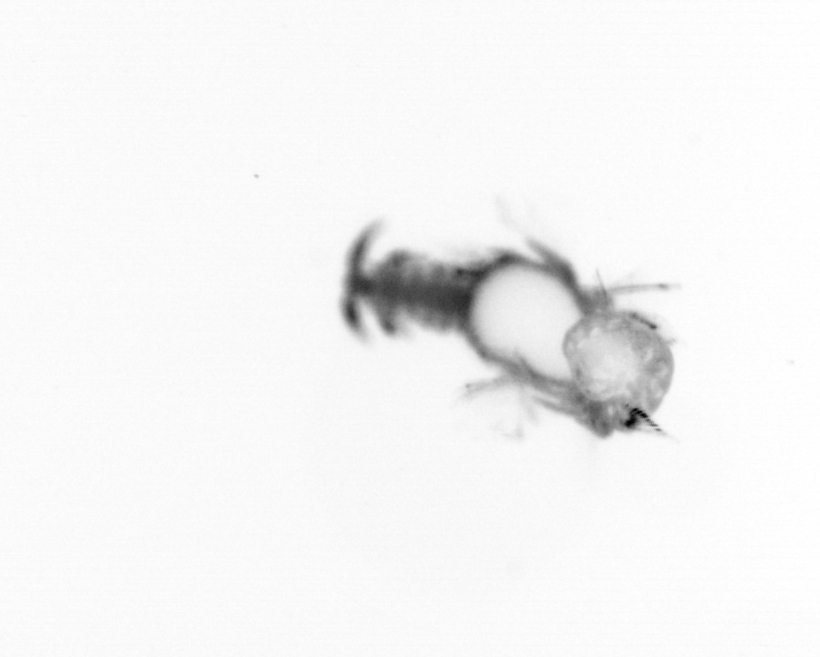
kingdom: Animalia
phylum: Annelida
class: Polychaeta
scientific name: Polychaeta
